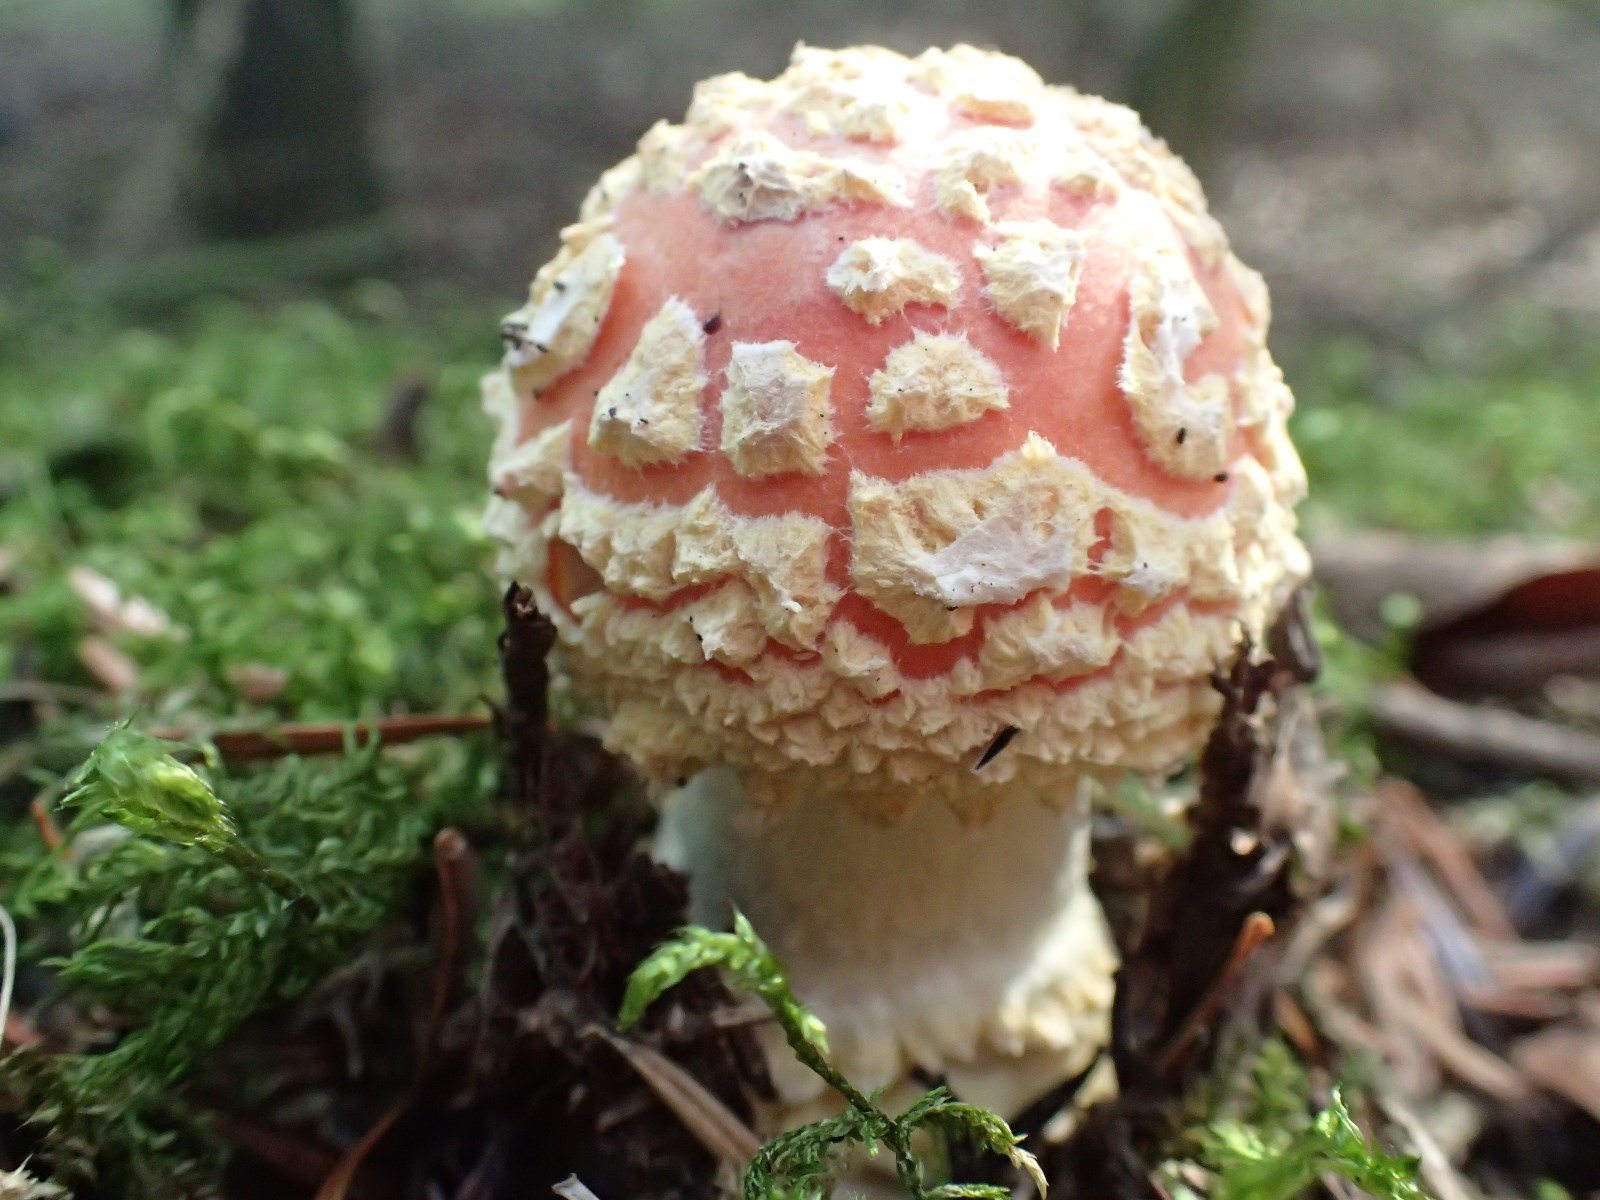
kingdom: Fungi
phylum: Basidiomycota
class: Agaricomycetes
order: Agaricales
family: Amanitaceae
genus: Amanita
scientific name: Amanita muscaria
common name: rød fluesvamp
